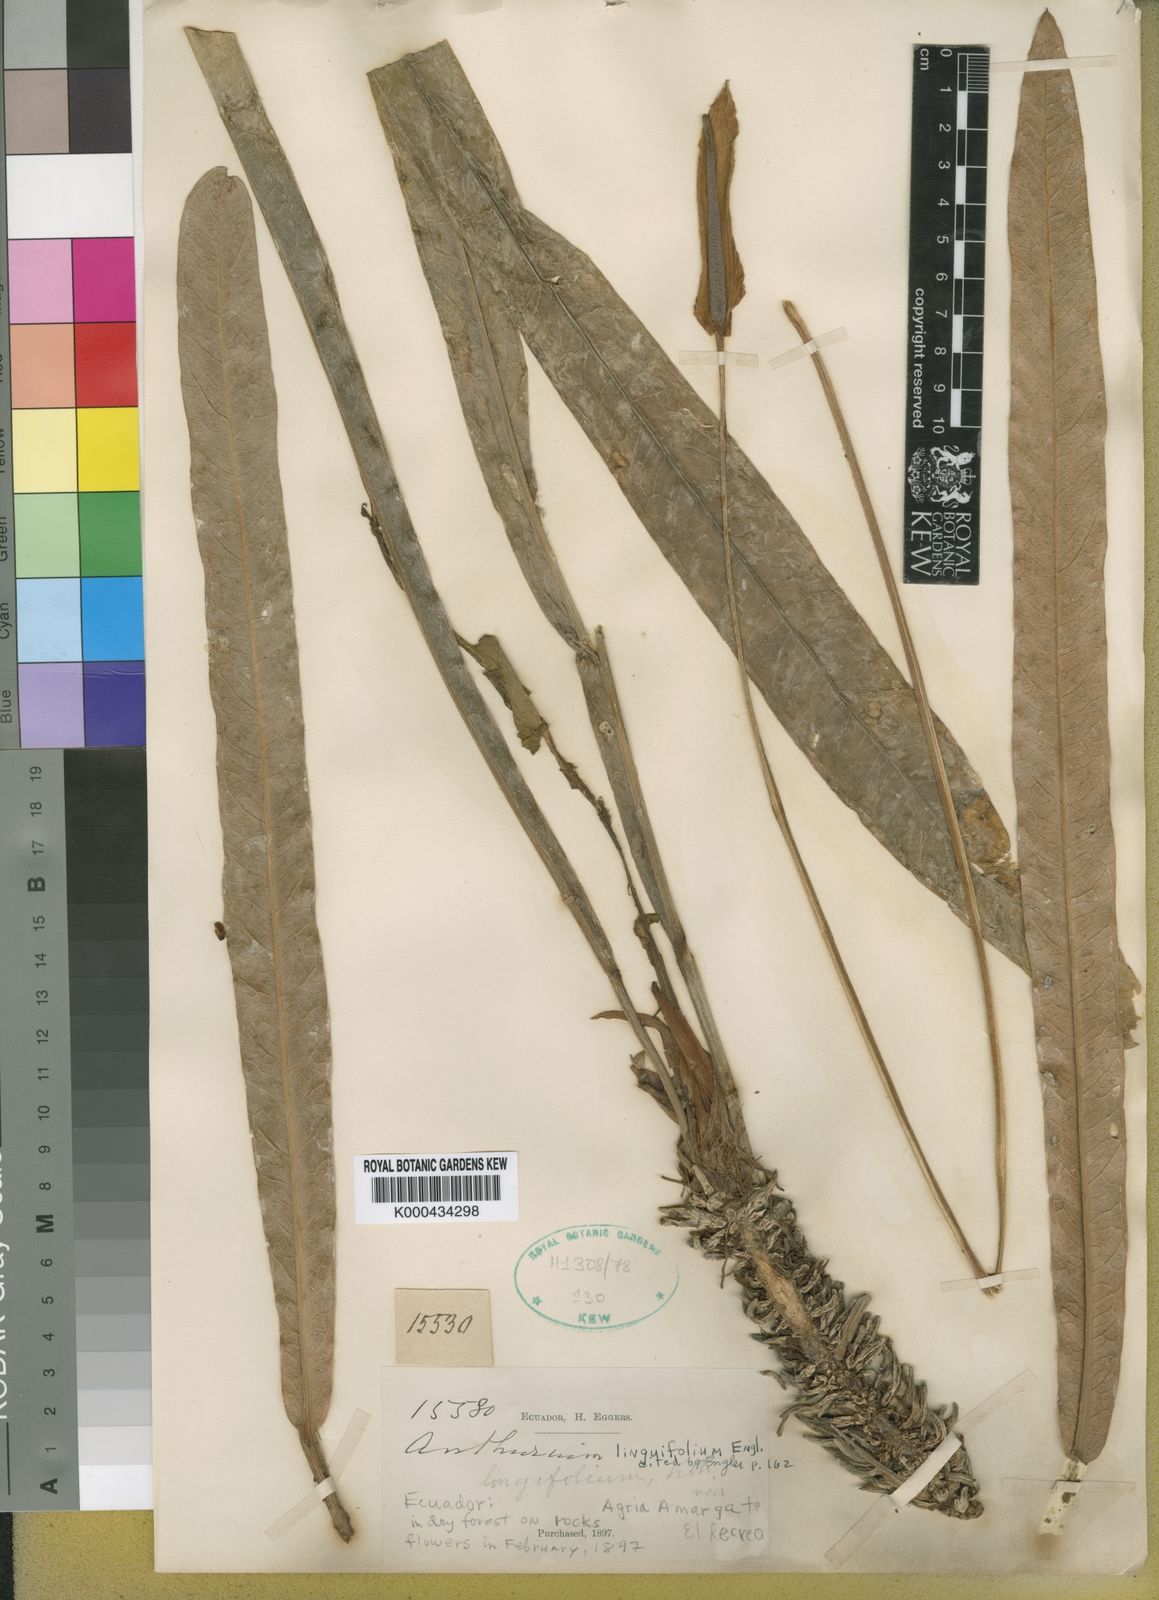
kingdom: Plantae
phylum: Tracheophyta
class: Liliopsida
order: Alismatales
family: Araceae
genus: Anthurium
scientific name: Anthurium linguifolium
